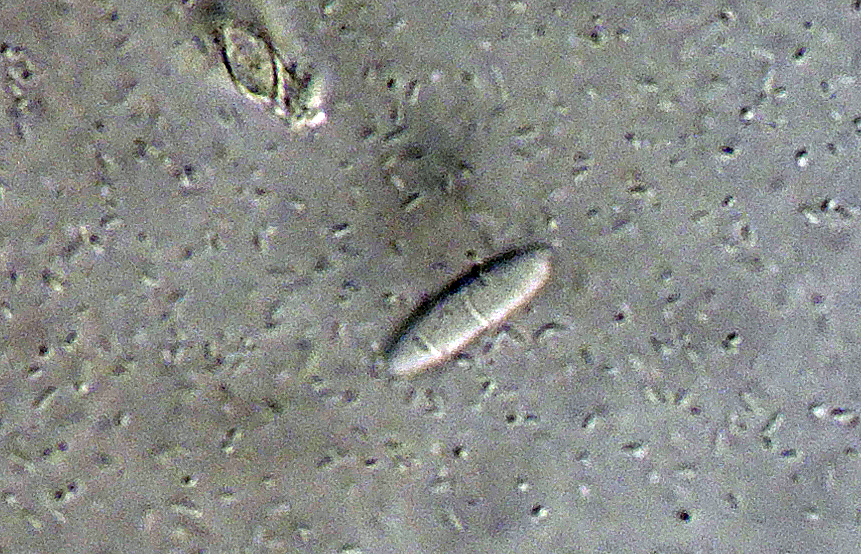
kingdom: Fungi
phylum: Ascomycota
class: Leotiomycetes
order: Helotiales
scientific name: Helotiales
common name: stilkskiveordenen
